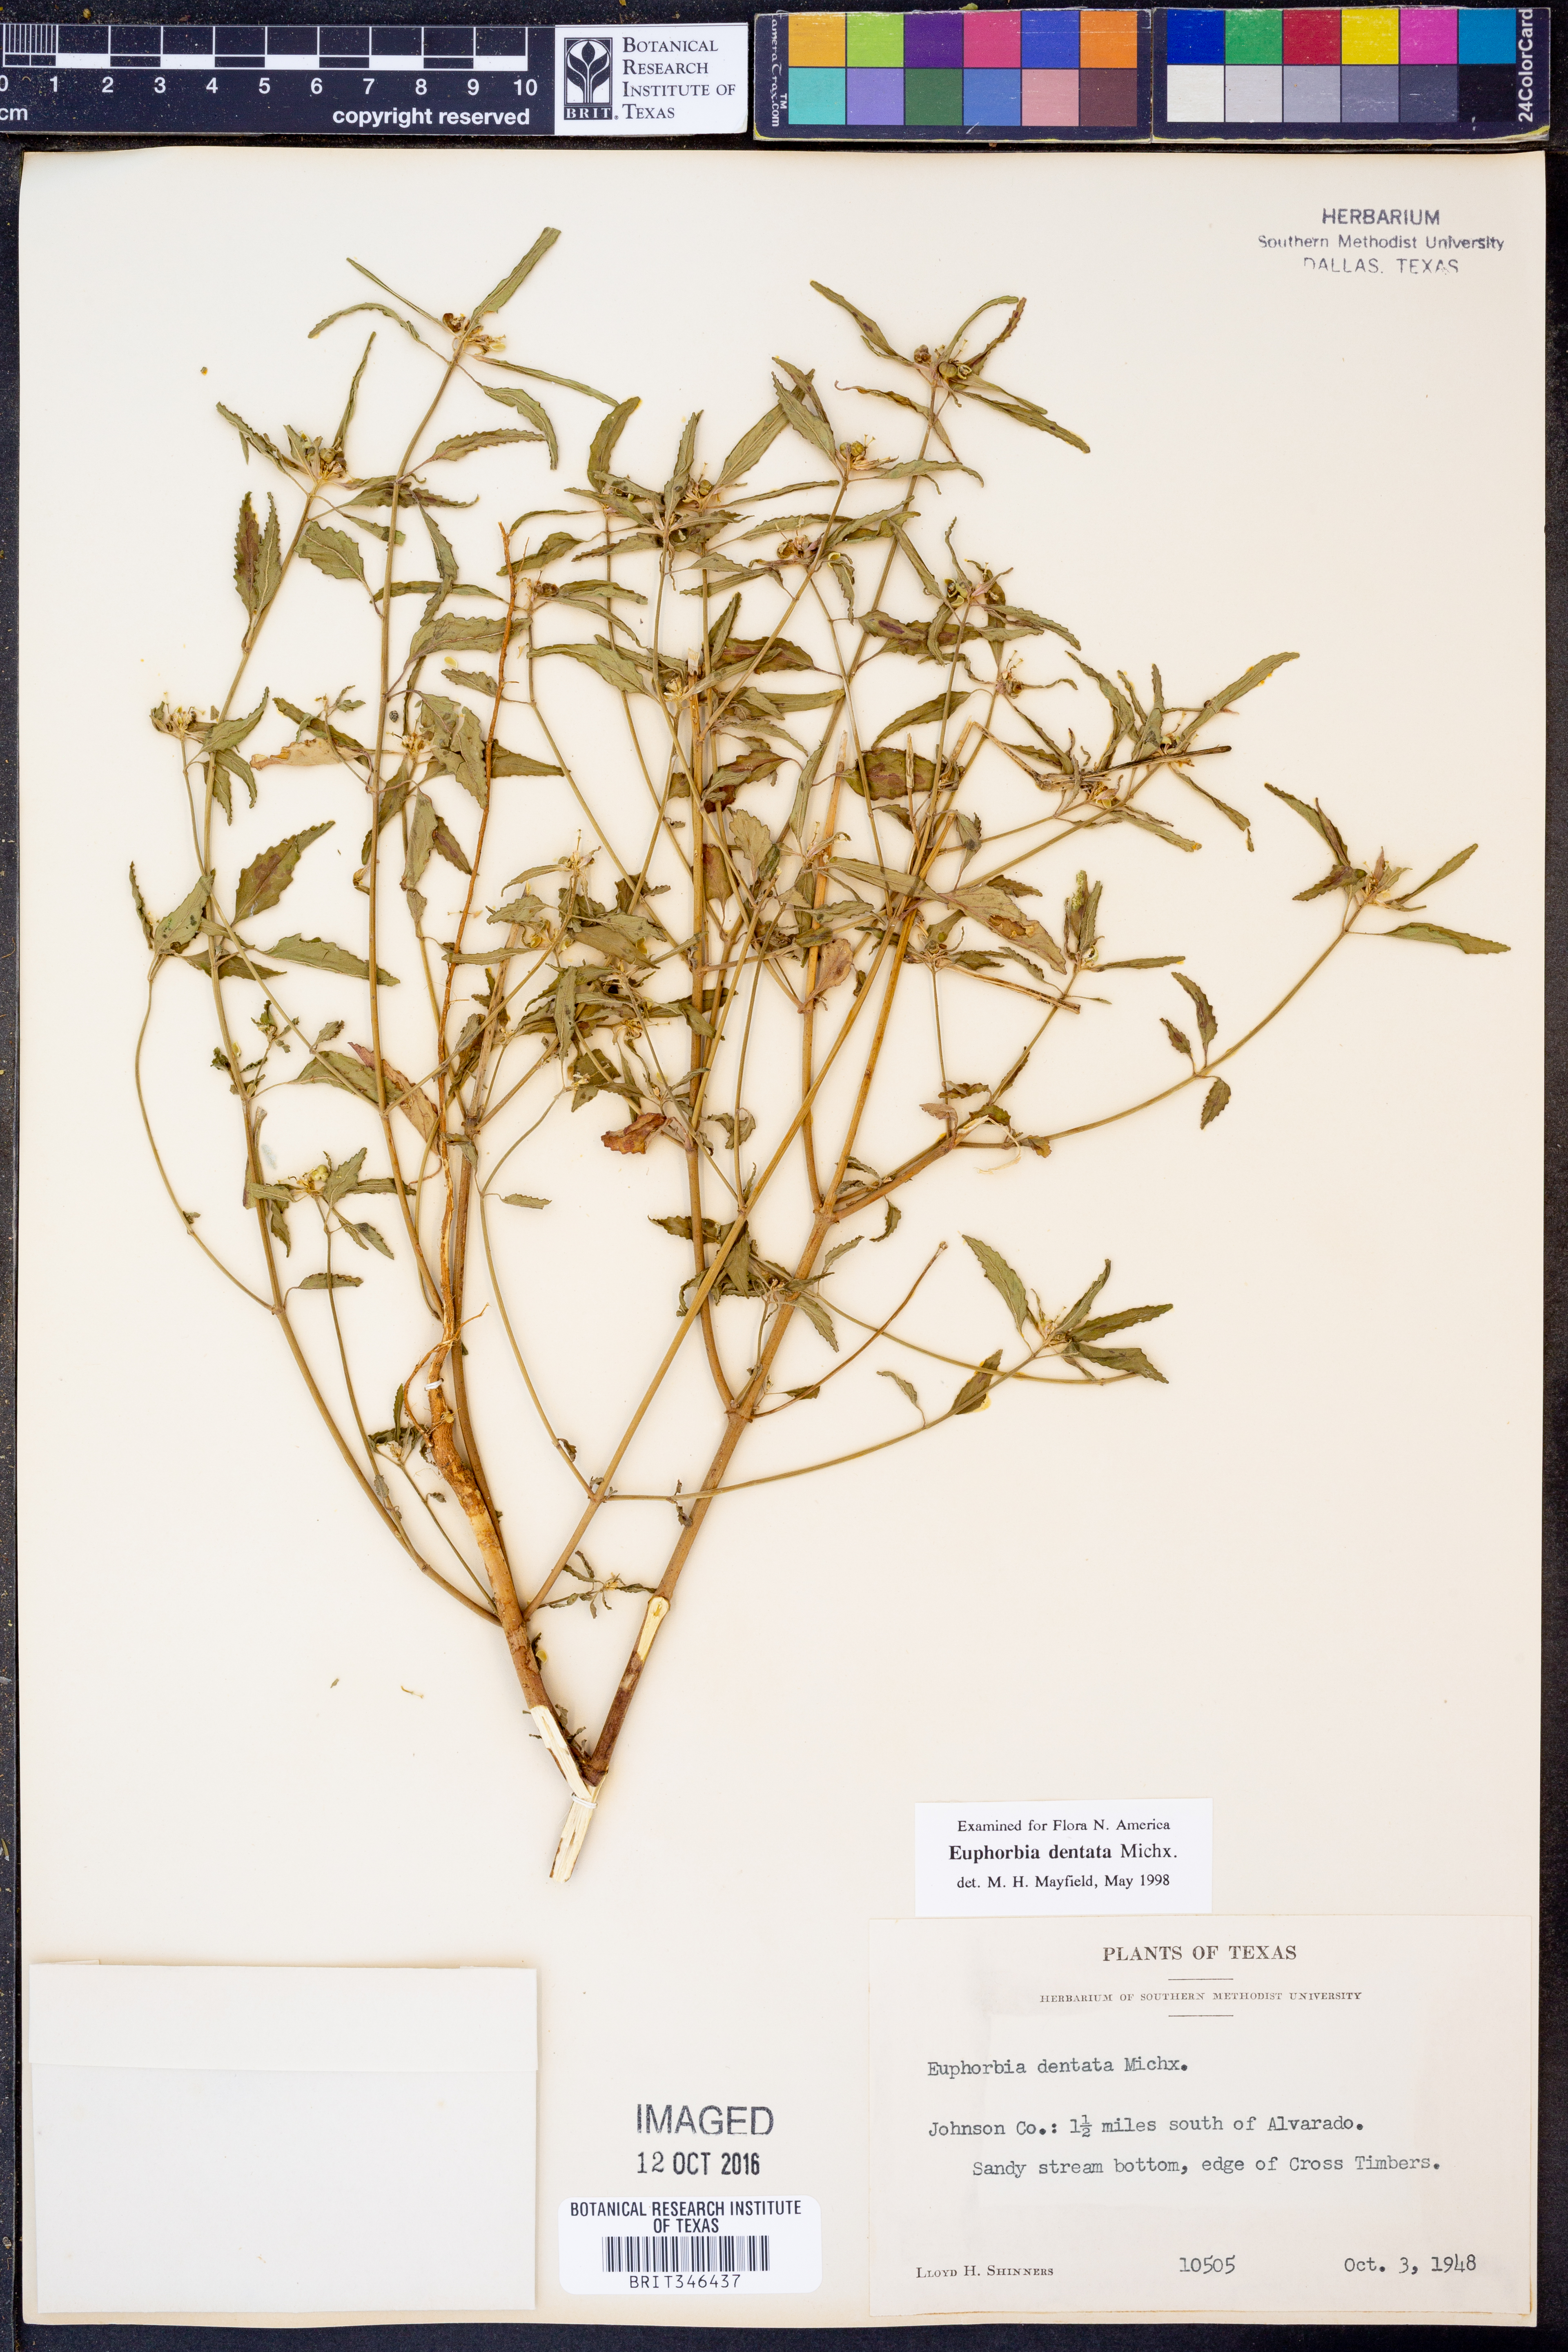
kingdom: Plantae
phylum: Tracheophyta
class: Magnoliopsida
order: Malpighiales
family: Euphorbiaceae
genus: Euphorbia
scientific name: Euphorbia dentata
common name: Dentate spurge
